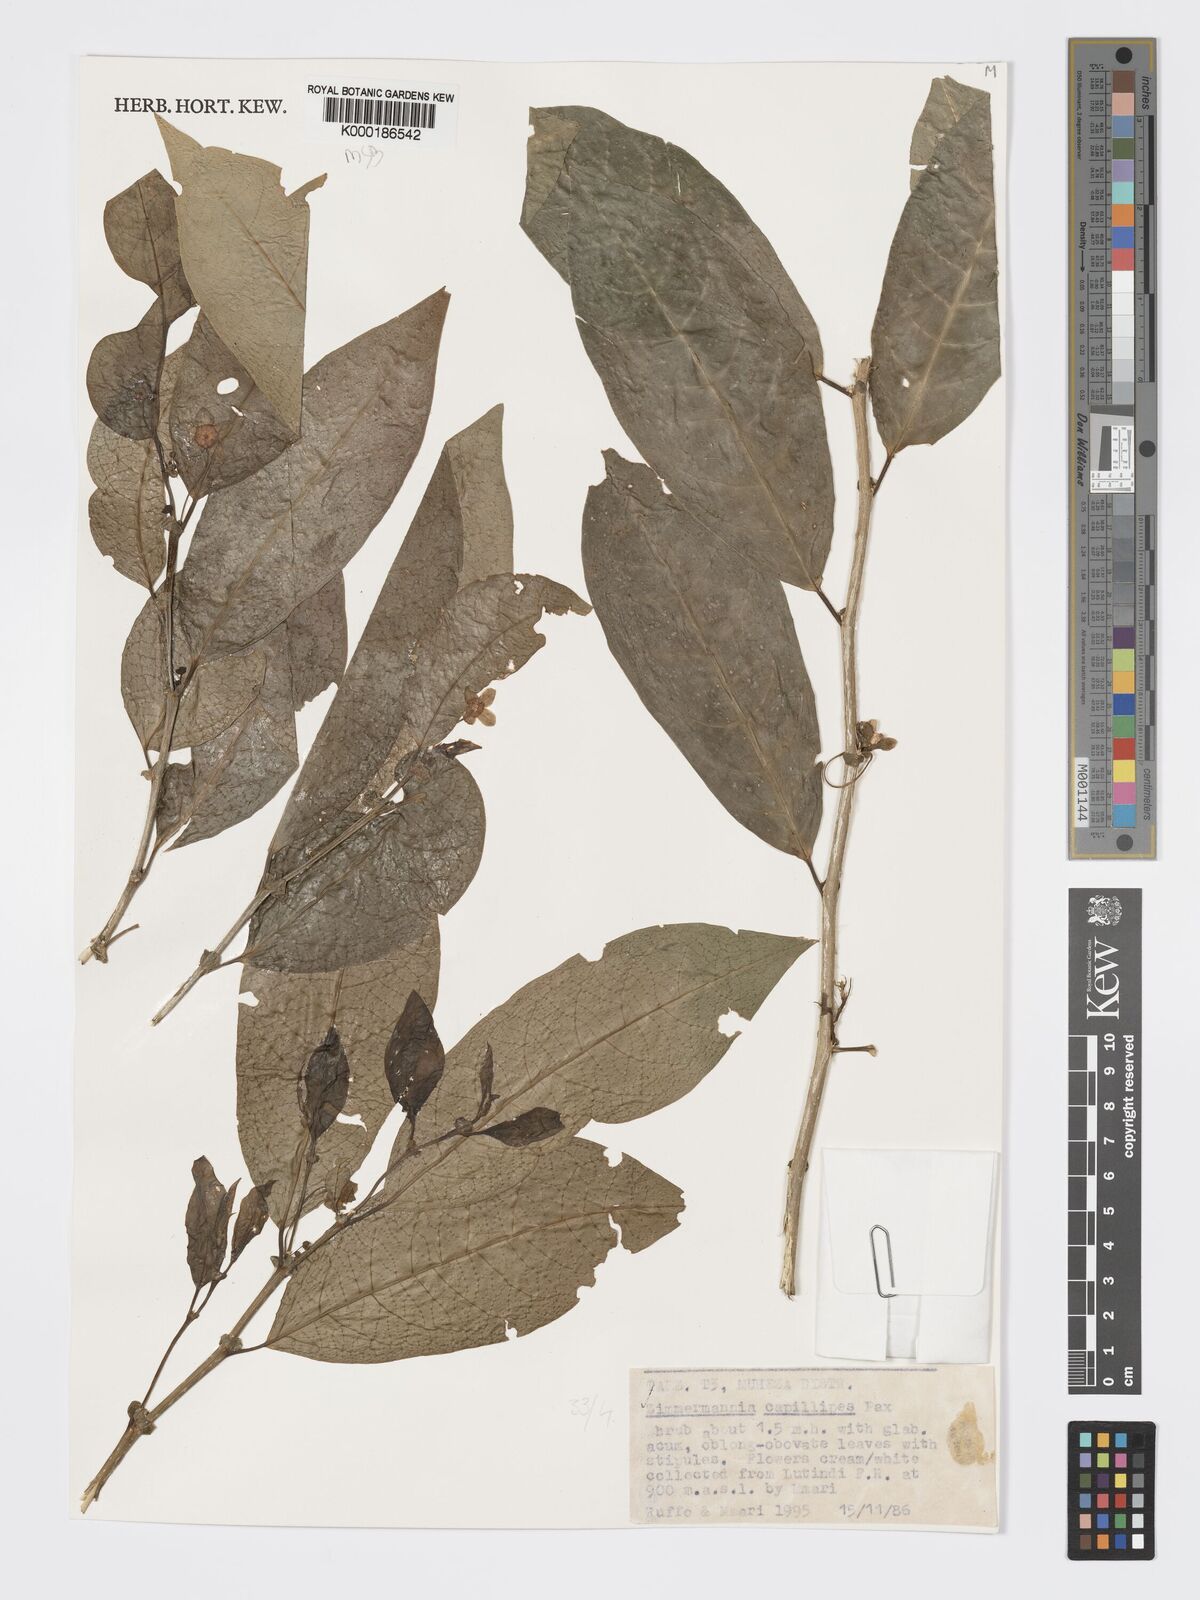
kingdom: Plantae
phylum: Tracheophyta
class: Magnoliopsida
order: Malpighiales
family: Phyllanthaceae
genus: Meineckia
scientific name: Meineckia paxii
